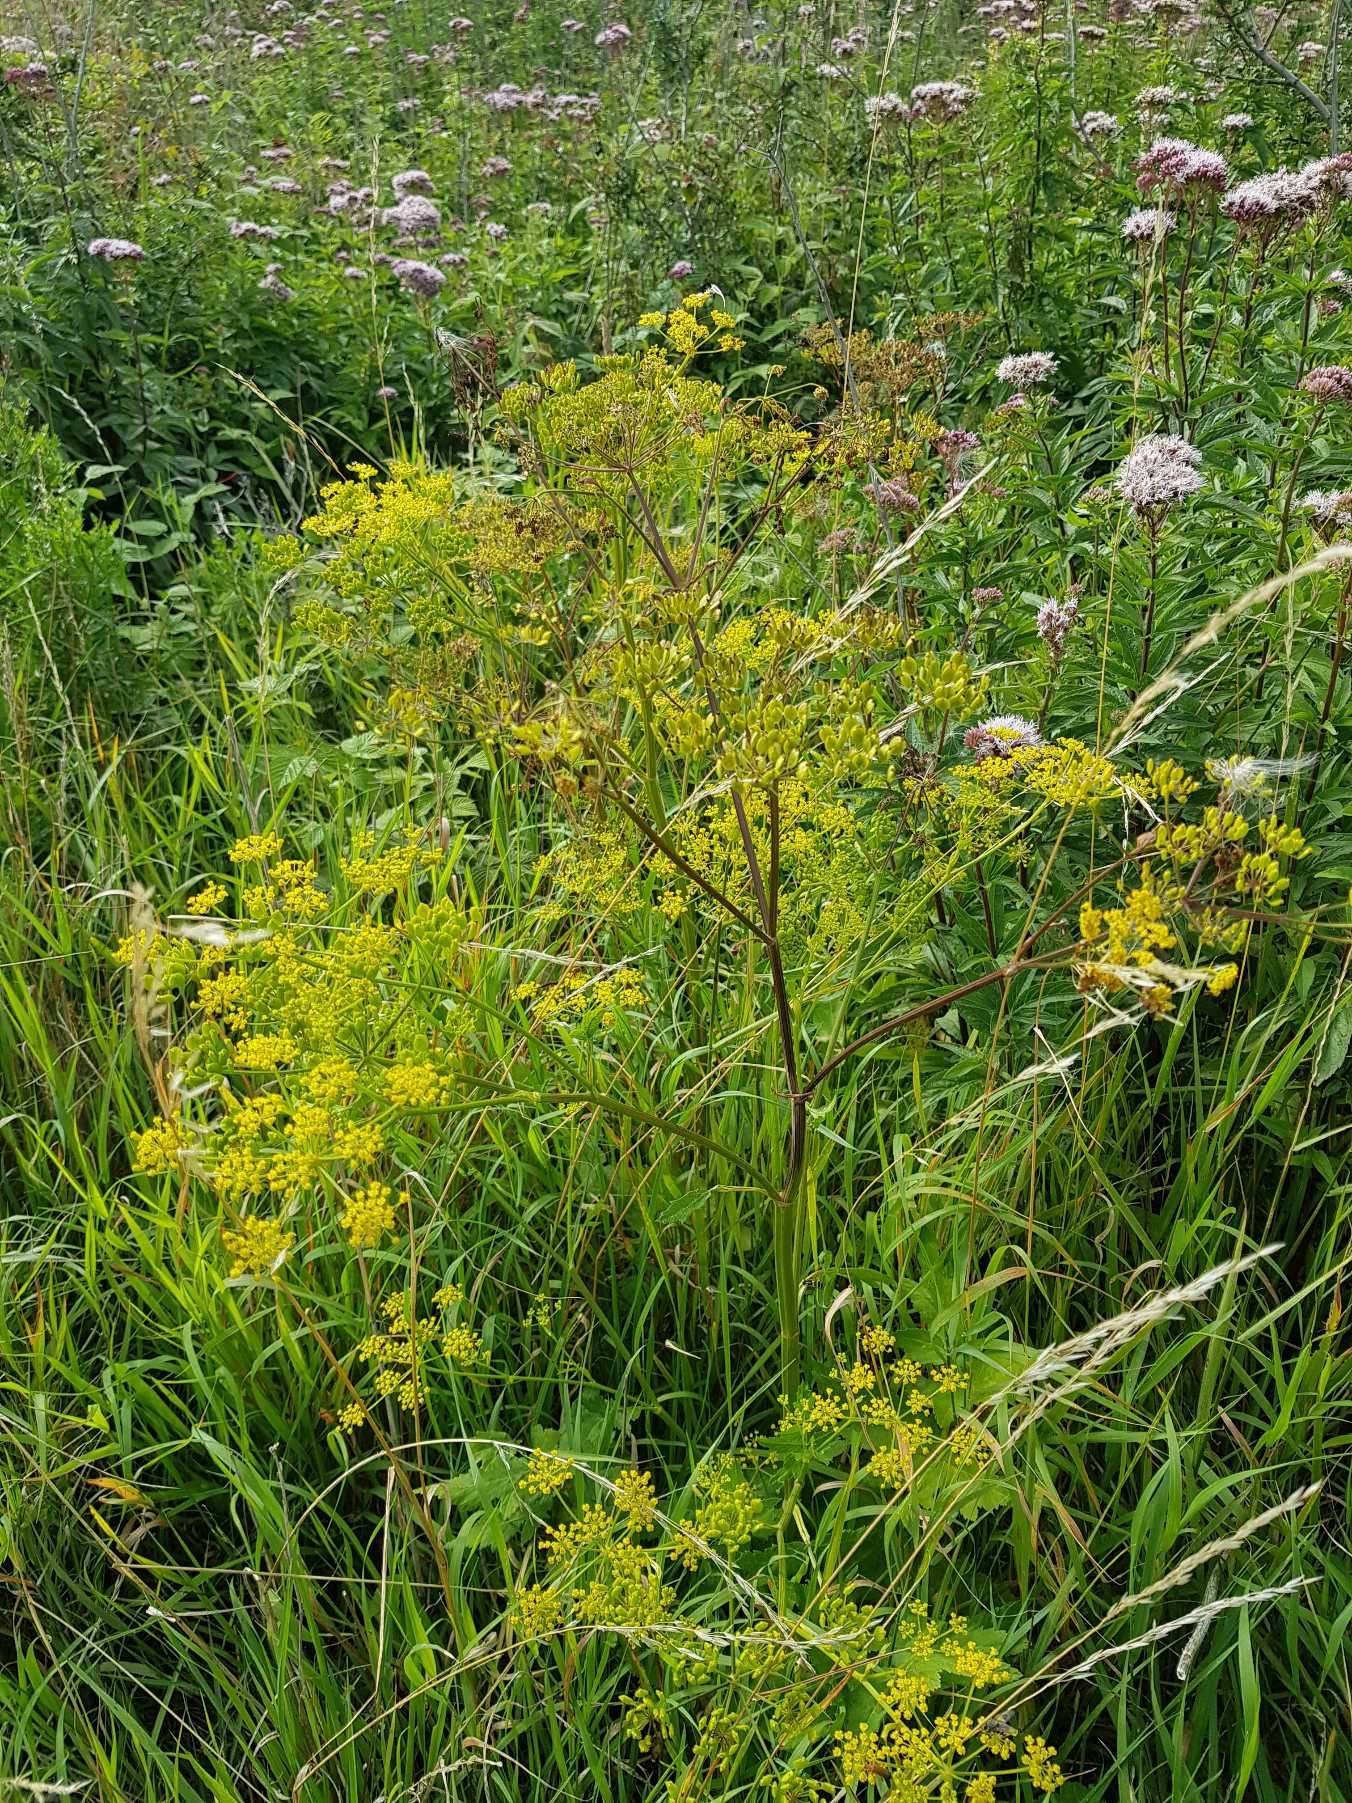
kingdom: Plantae
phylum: Tracheophyta
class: Magnoliopsida
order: Apiales
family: Apiaceae
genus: Pastinaca
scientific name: Pastinaca sativa
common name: Pastinak
